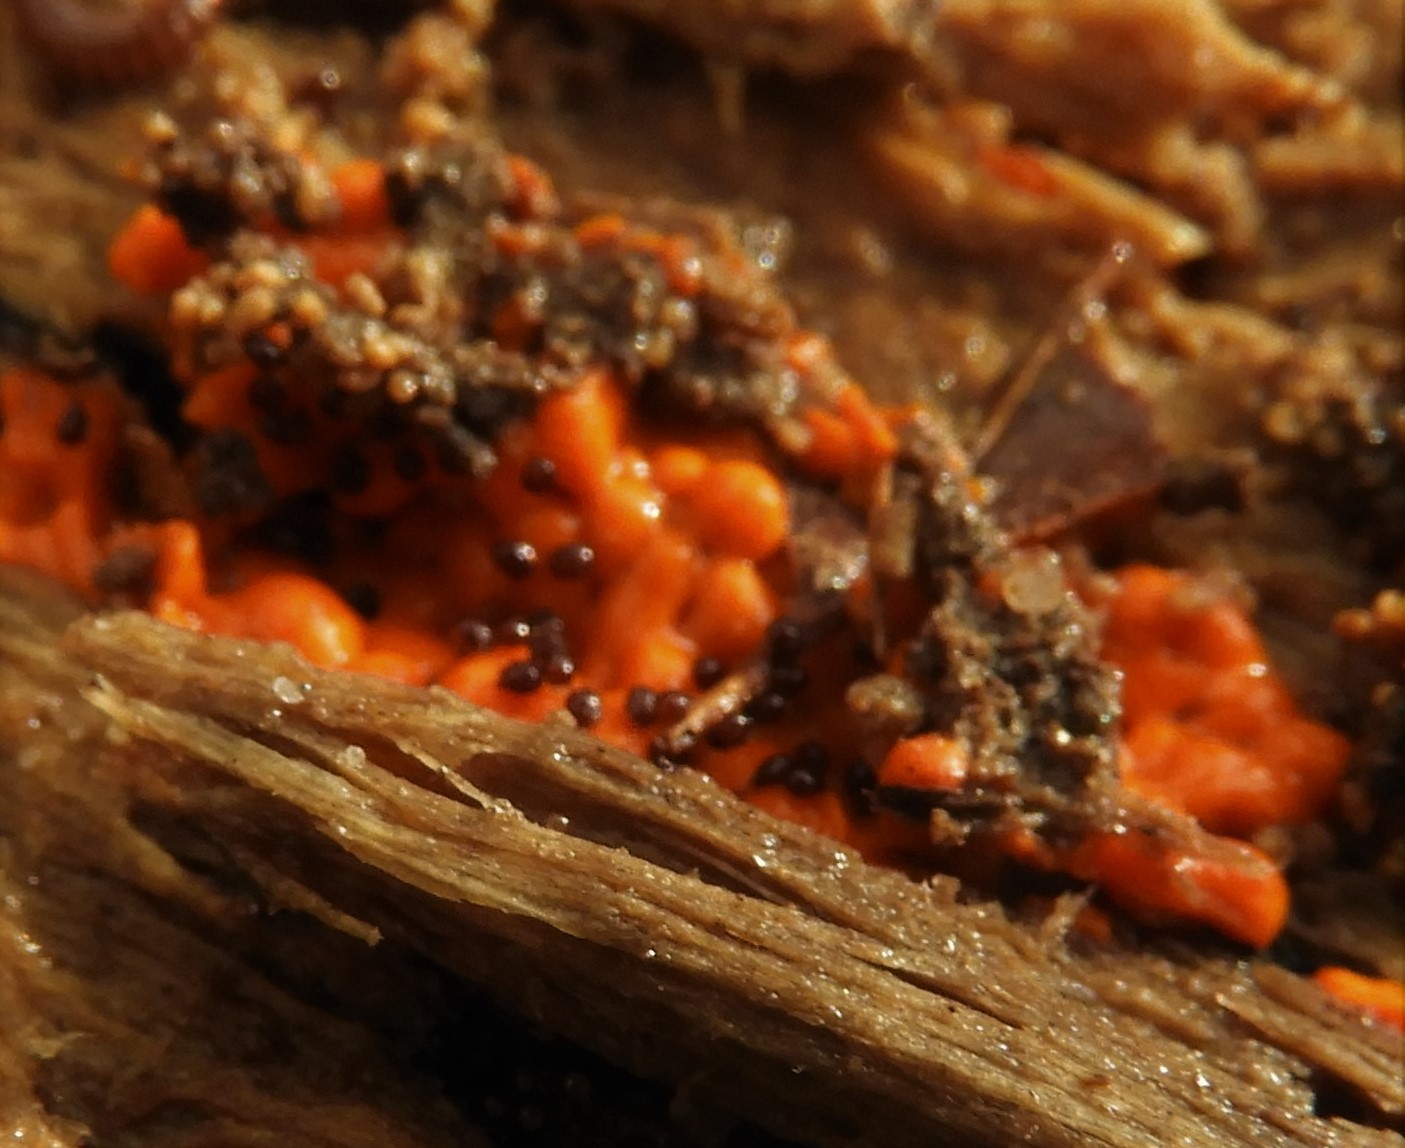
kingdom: Protozoa
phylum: Mycetozoa
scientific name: Mycetozoa
